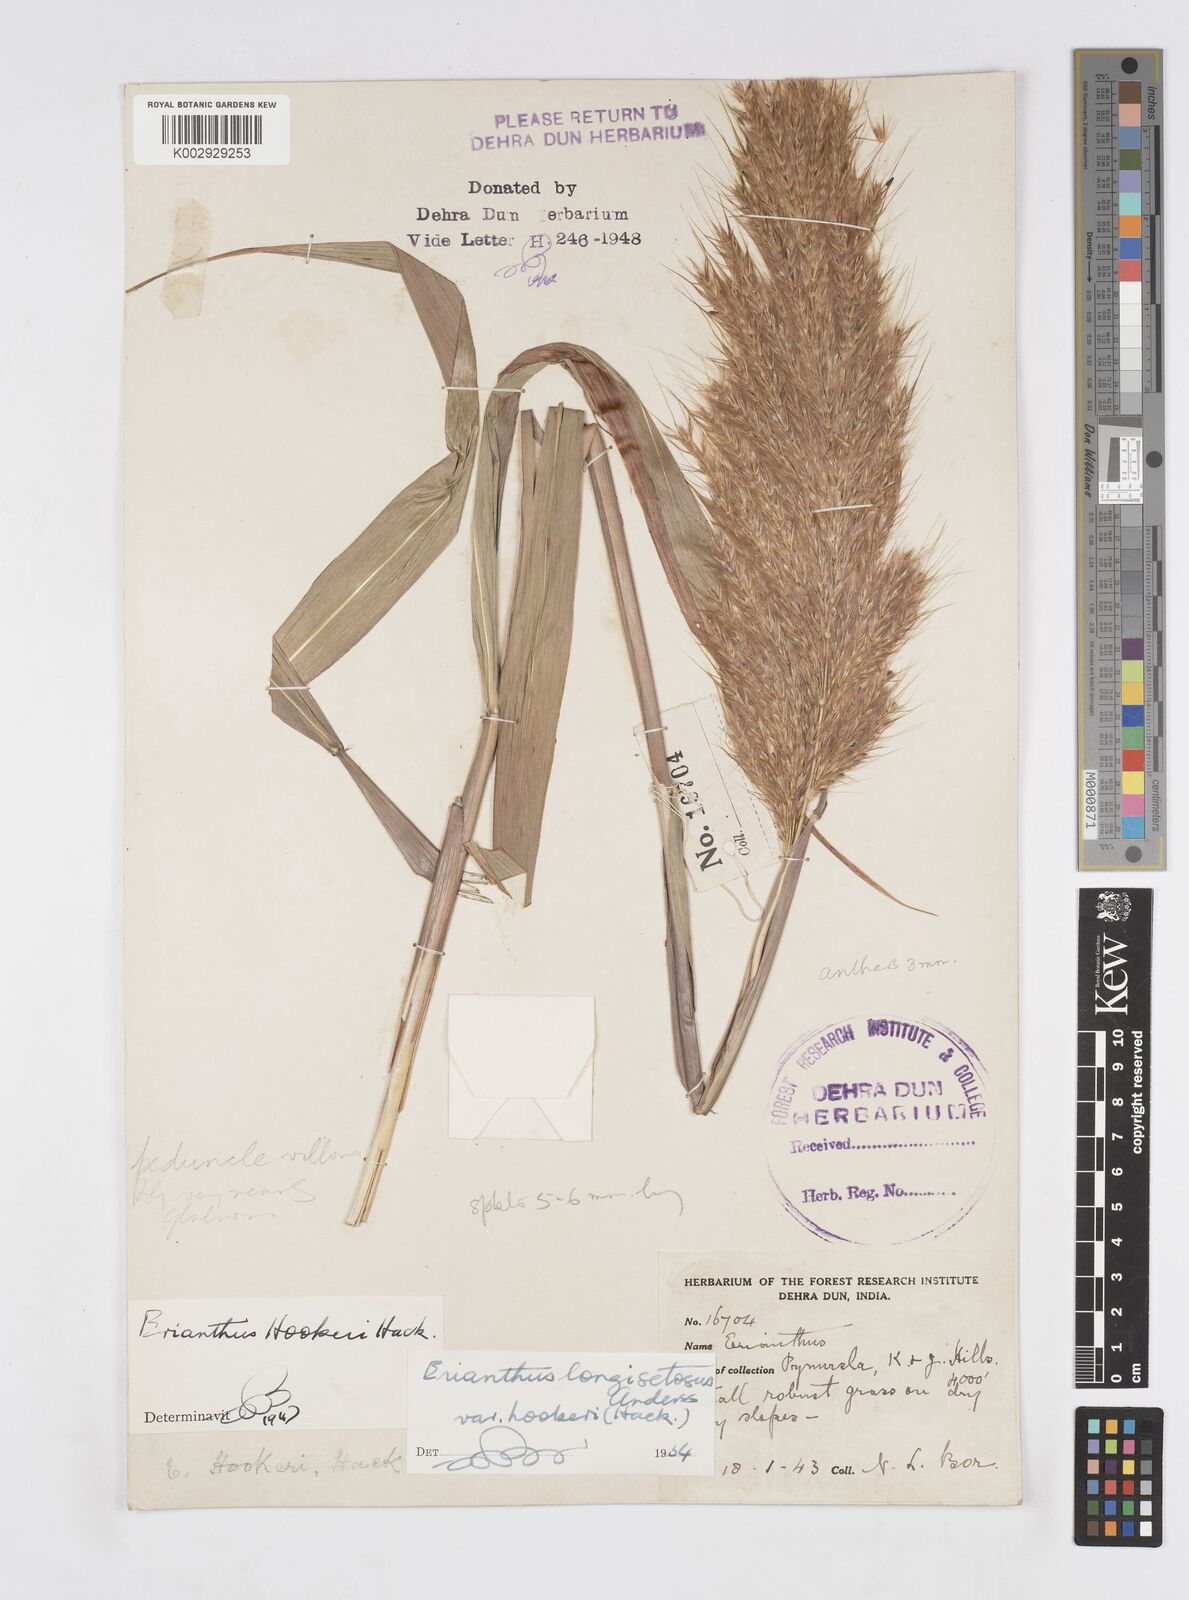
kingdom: Plantae
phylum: Tracheophyta
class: Liliopsida
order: Poales
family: Poaceae
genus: Saccharum
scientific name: Saccharum longesetosum
